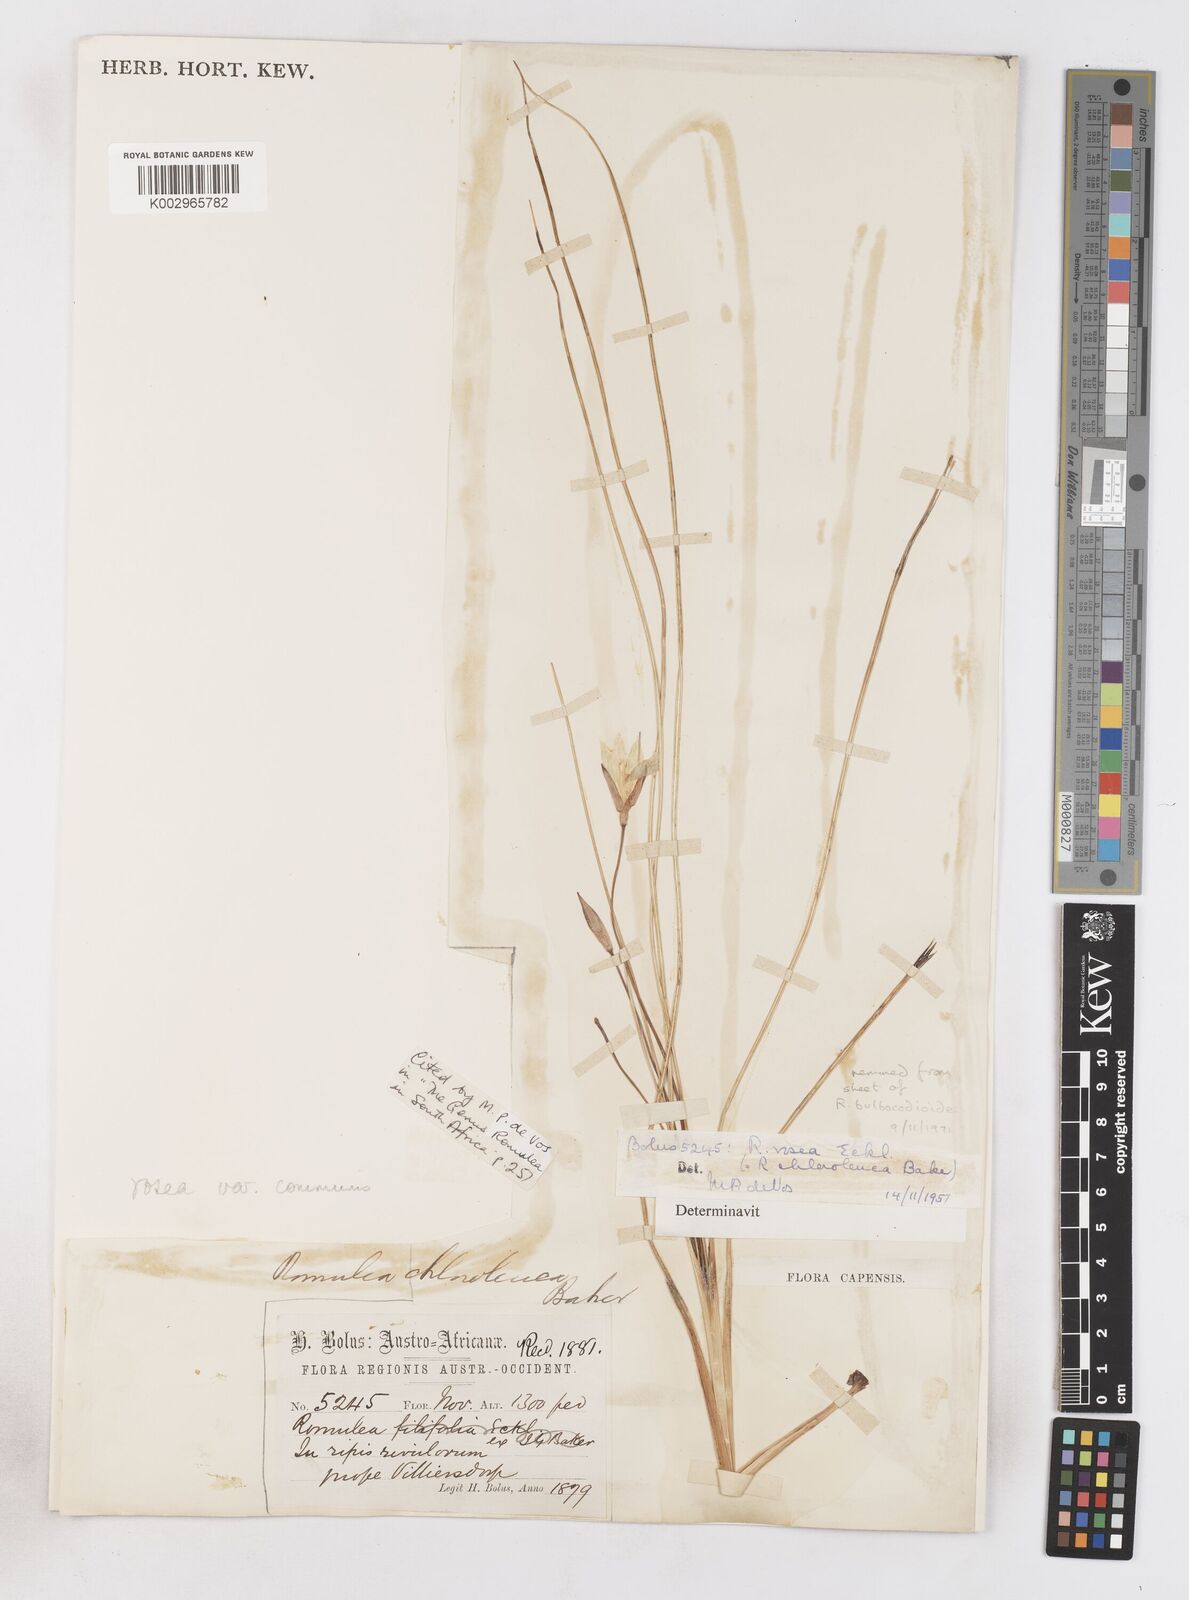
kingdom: Plantae
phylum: Tracheophyta
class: Liliopsida
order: Asparagales
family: Iridaceae
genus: Romulea
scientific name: Romulea rosea
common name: Oniongrass
